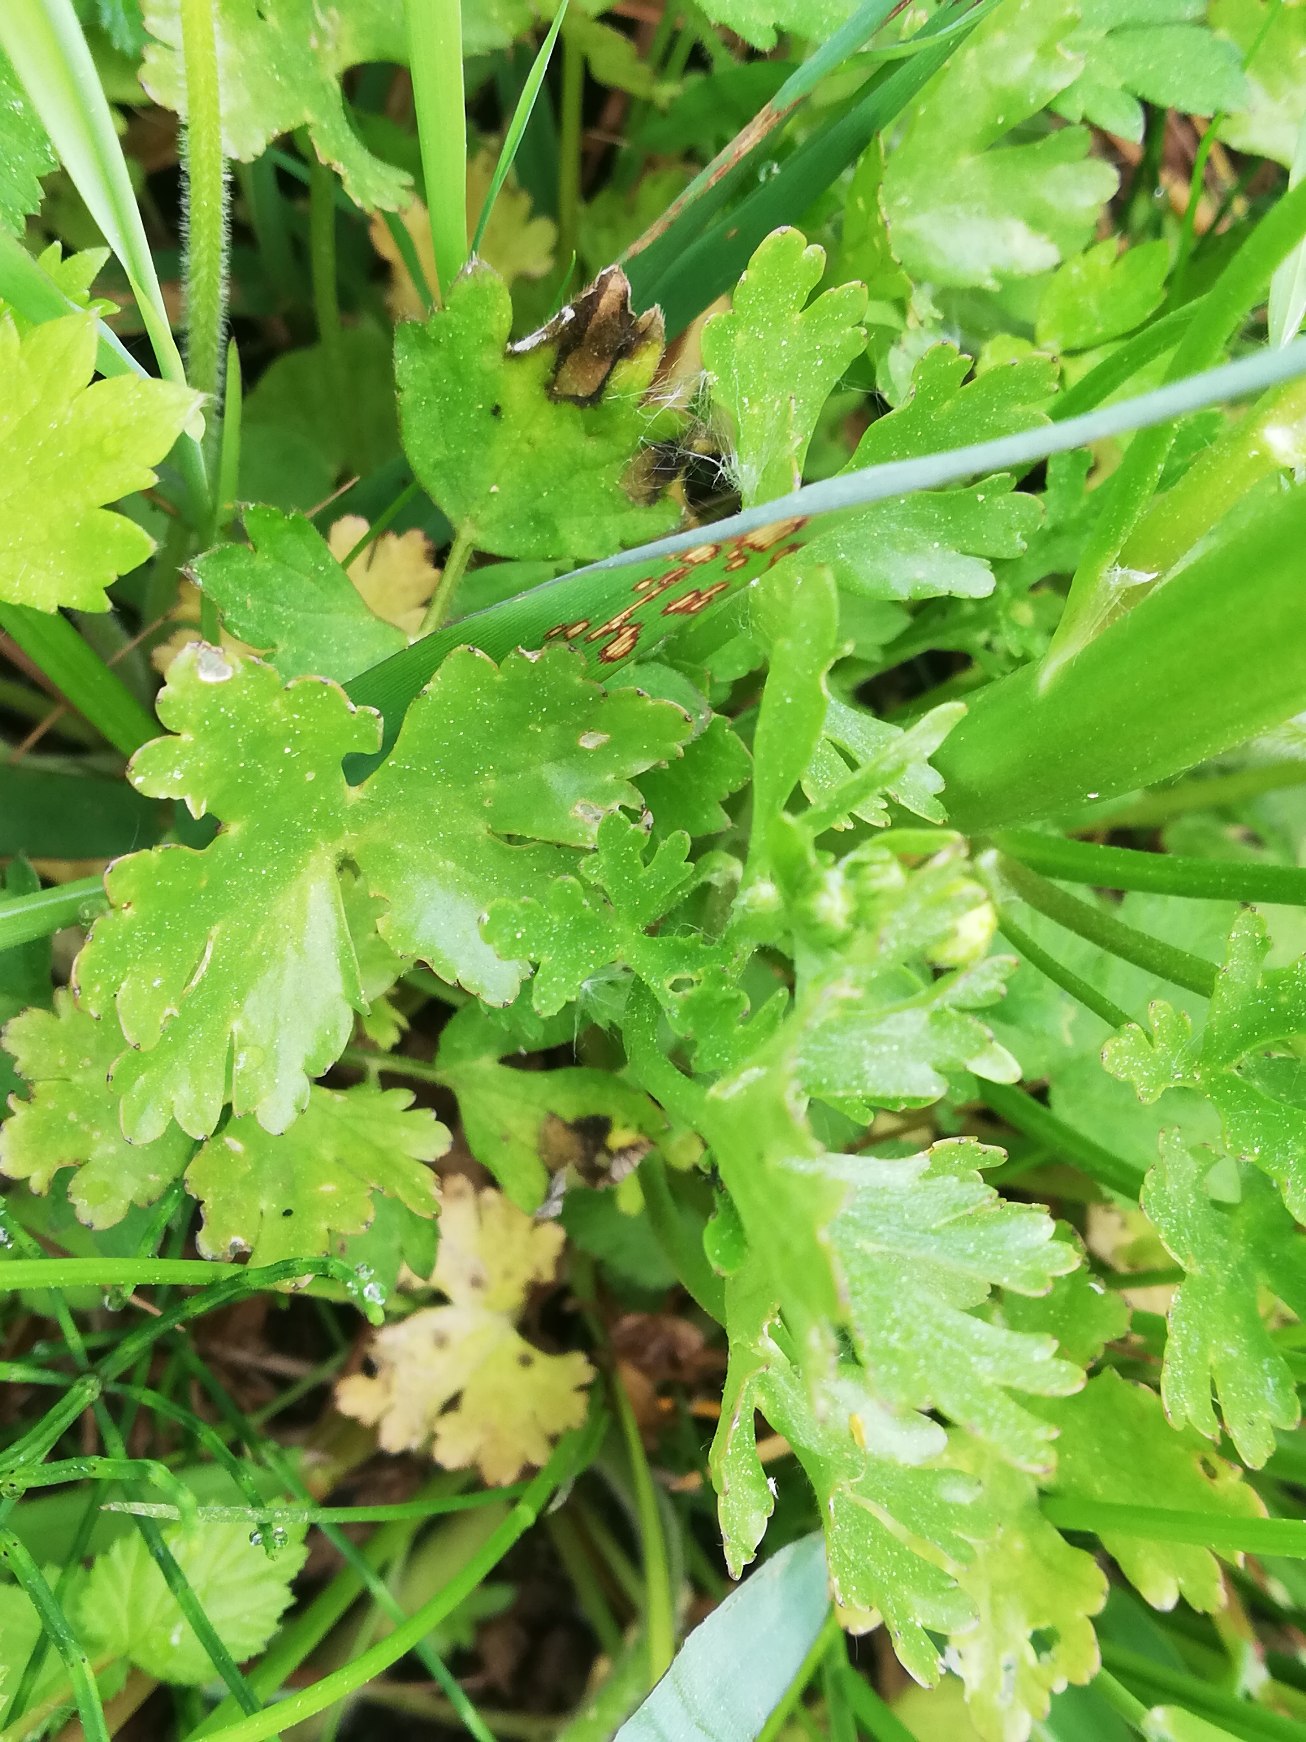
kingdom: Plantae
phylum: Tracheophyta
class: Magnoliopsida
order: Ranunculales
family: Ranunculaceae
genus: Ranunculus
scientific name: Ranunculus sceleratus
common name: Tigger-ranunkel
